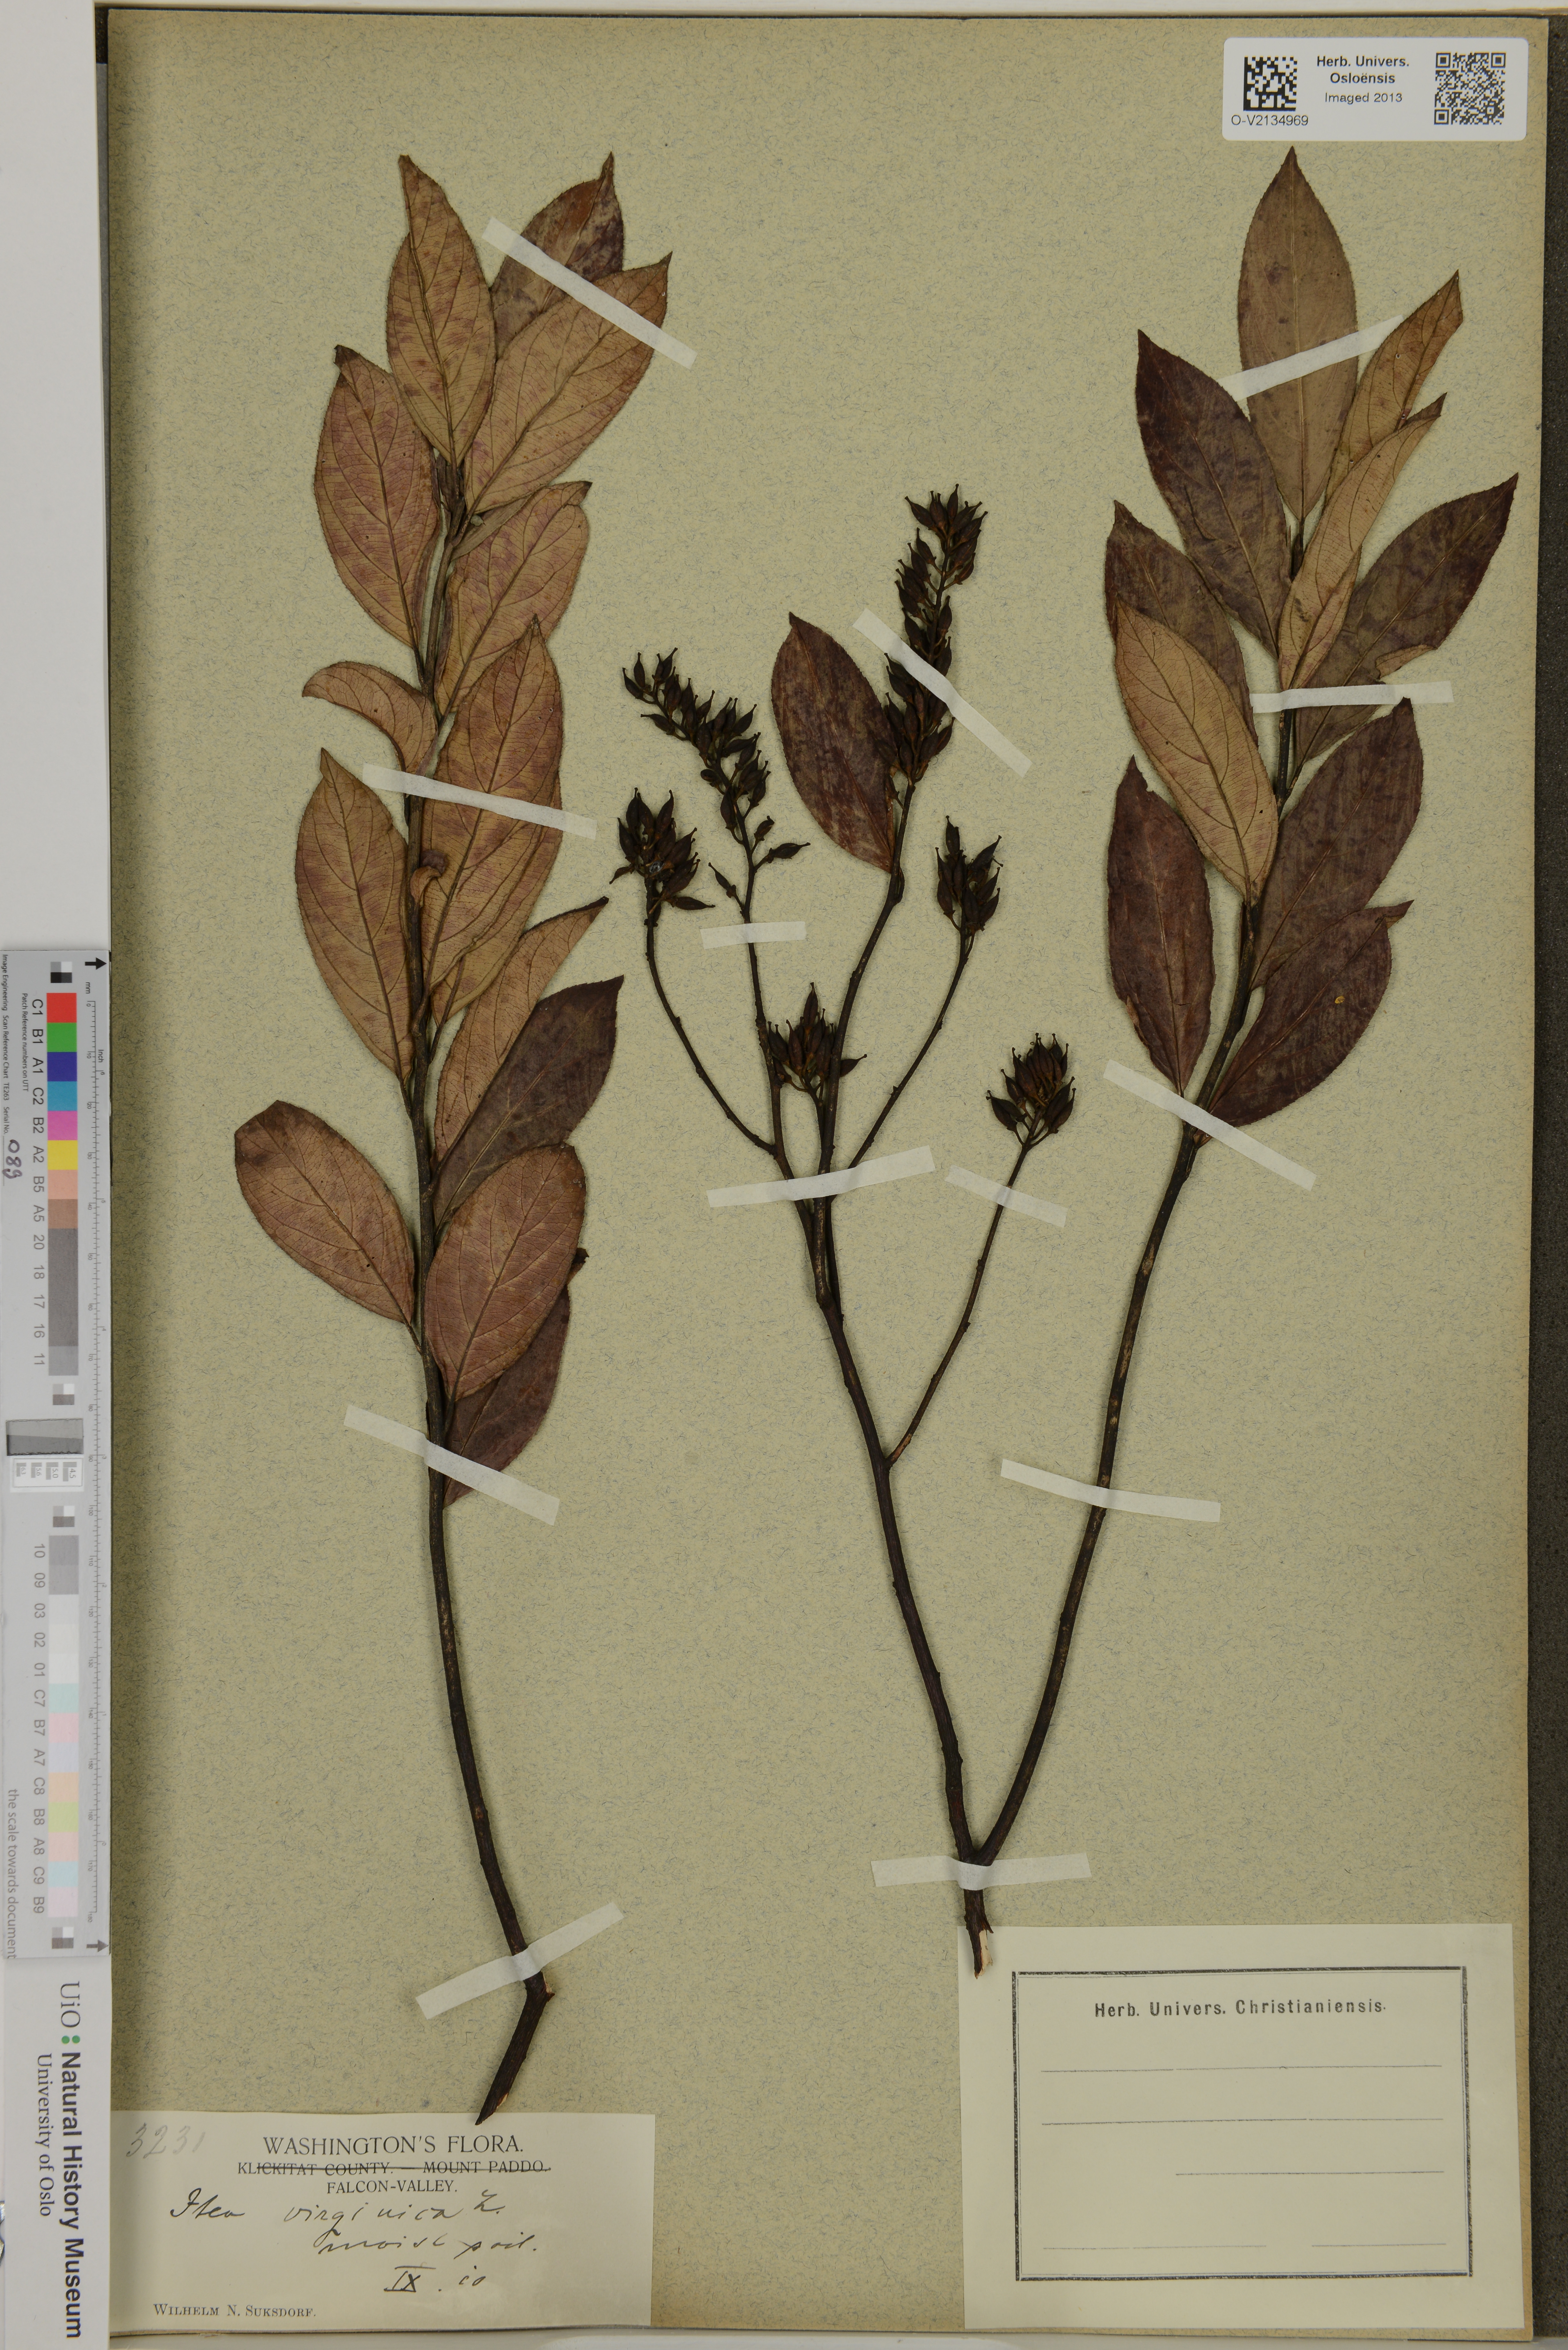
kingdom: Plantae
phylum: Tracheophyta
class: Magnoliopsida
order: Saxifragales
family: Iteaceae
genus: Itea
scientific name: Itea virginica
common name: Sweetspire
